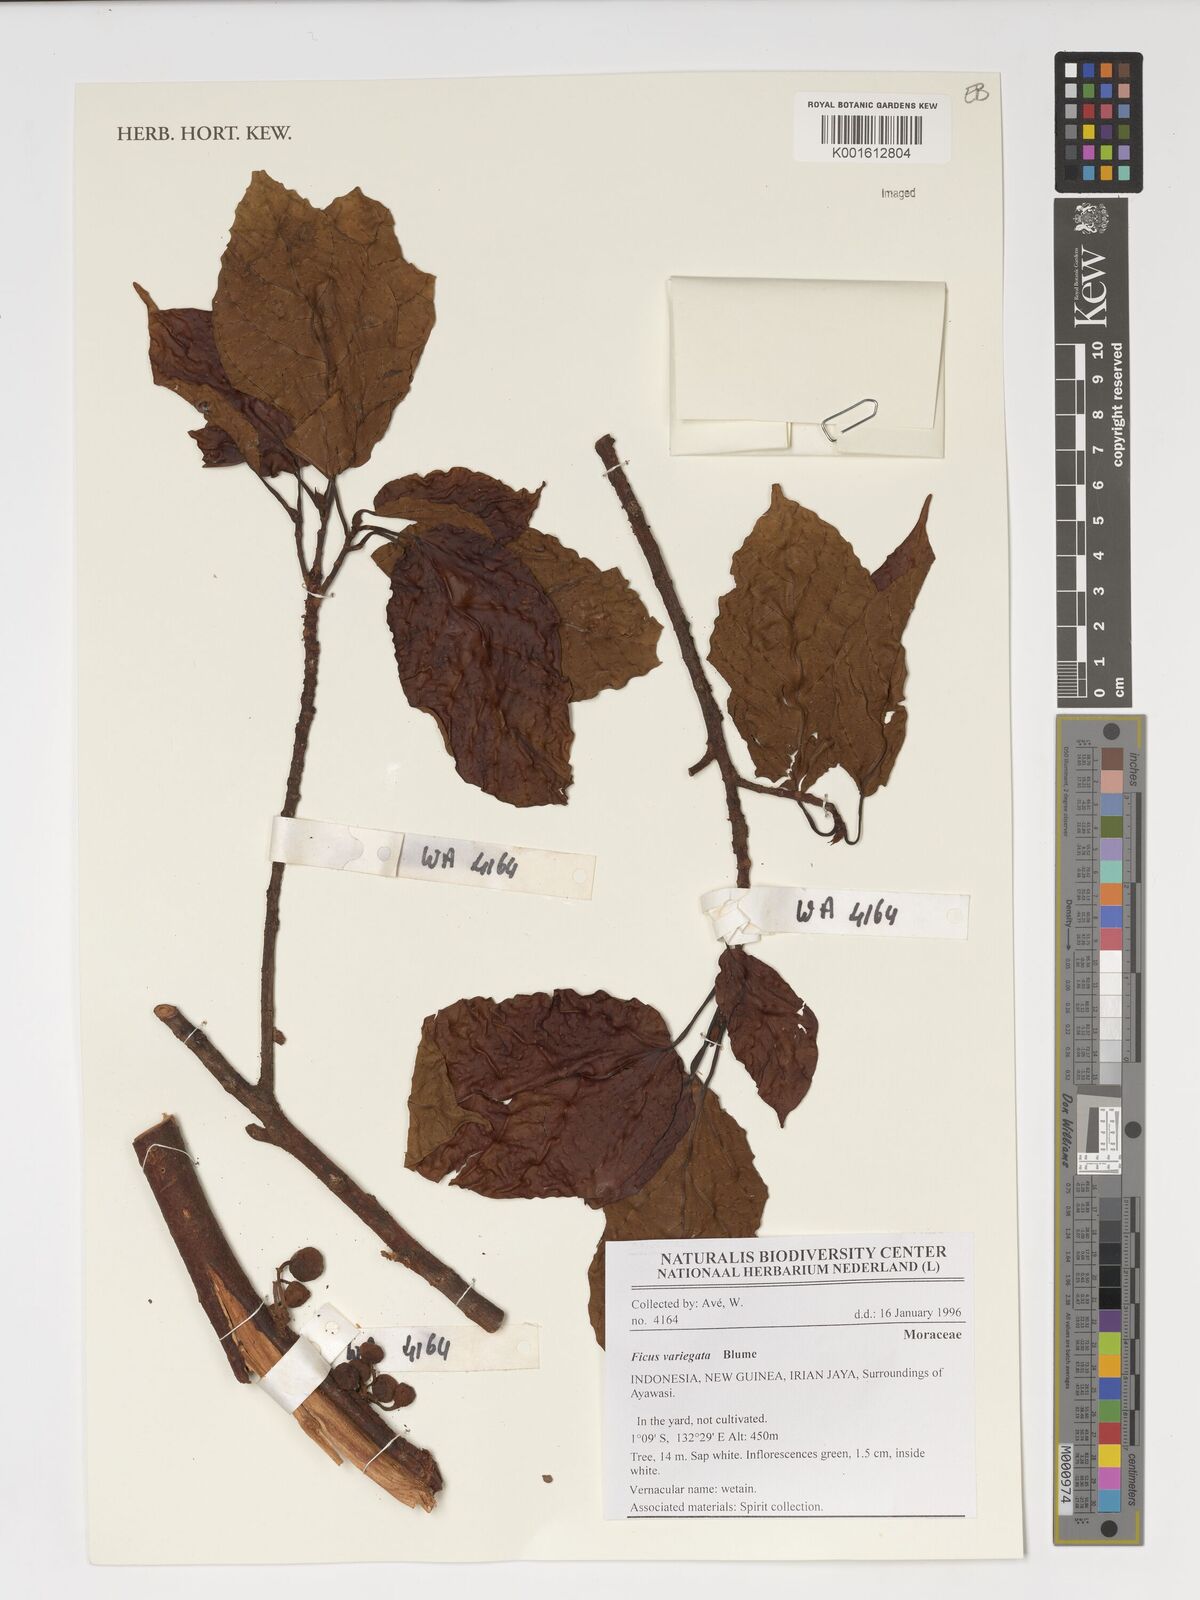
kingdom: Plantae
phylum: Tracheophyta
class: Magnoliopsida
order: Rosales
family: Moraceae
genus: Ficus
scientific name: Ficus variegata
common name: Variegated fig
